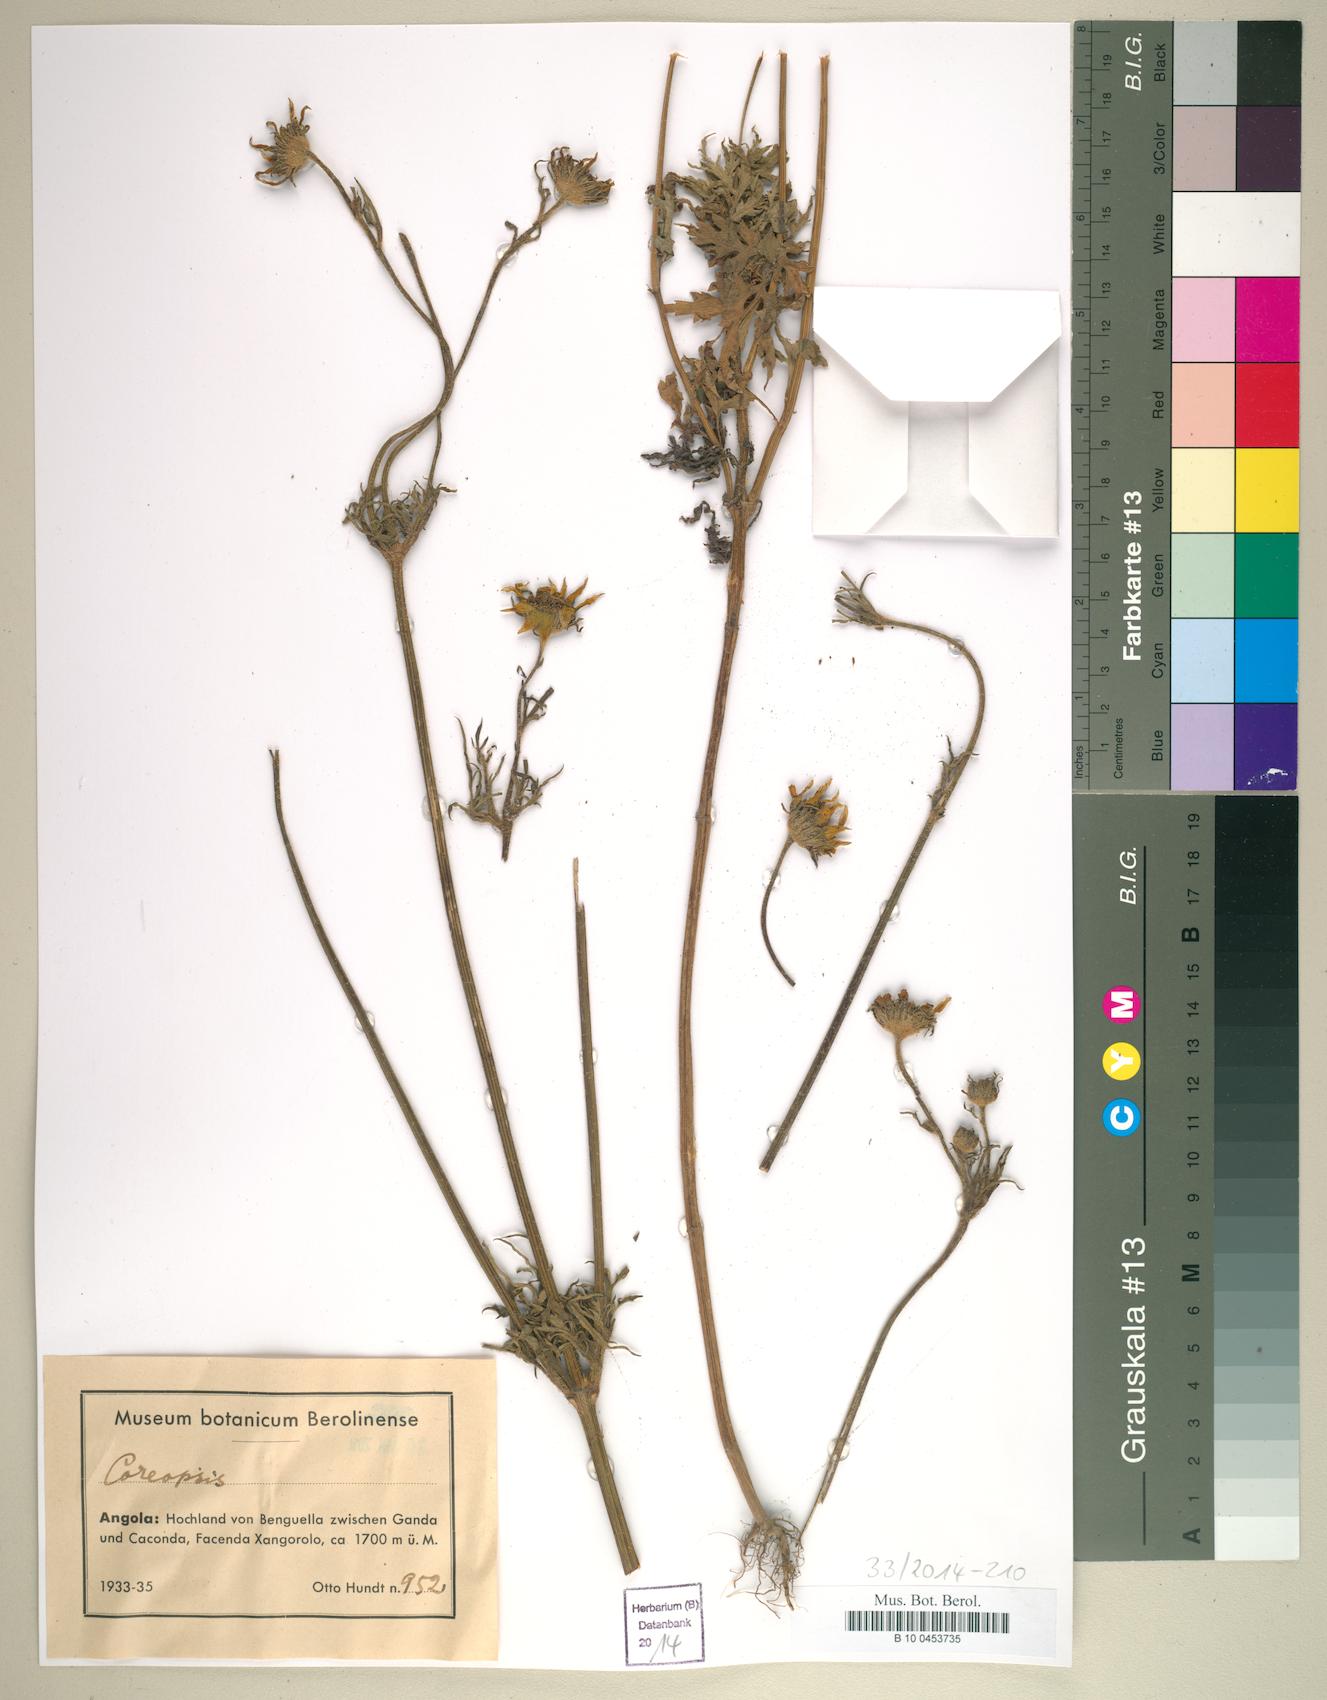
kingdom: Plantae
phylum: Tracheophyta
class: Magnoliopsida
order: Asterales
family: Asteraceae
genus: Coreopsis
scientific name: Coreopsis
